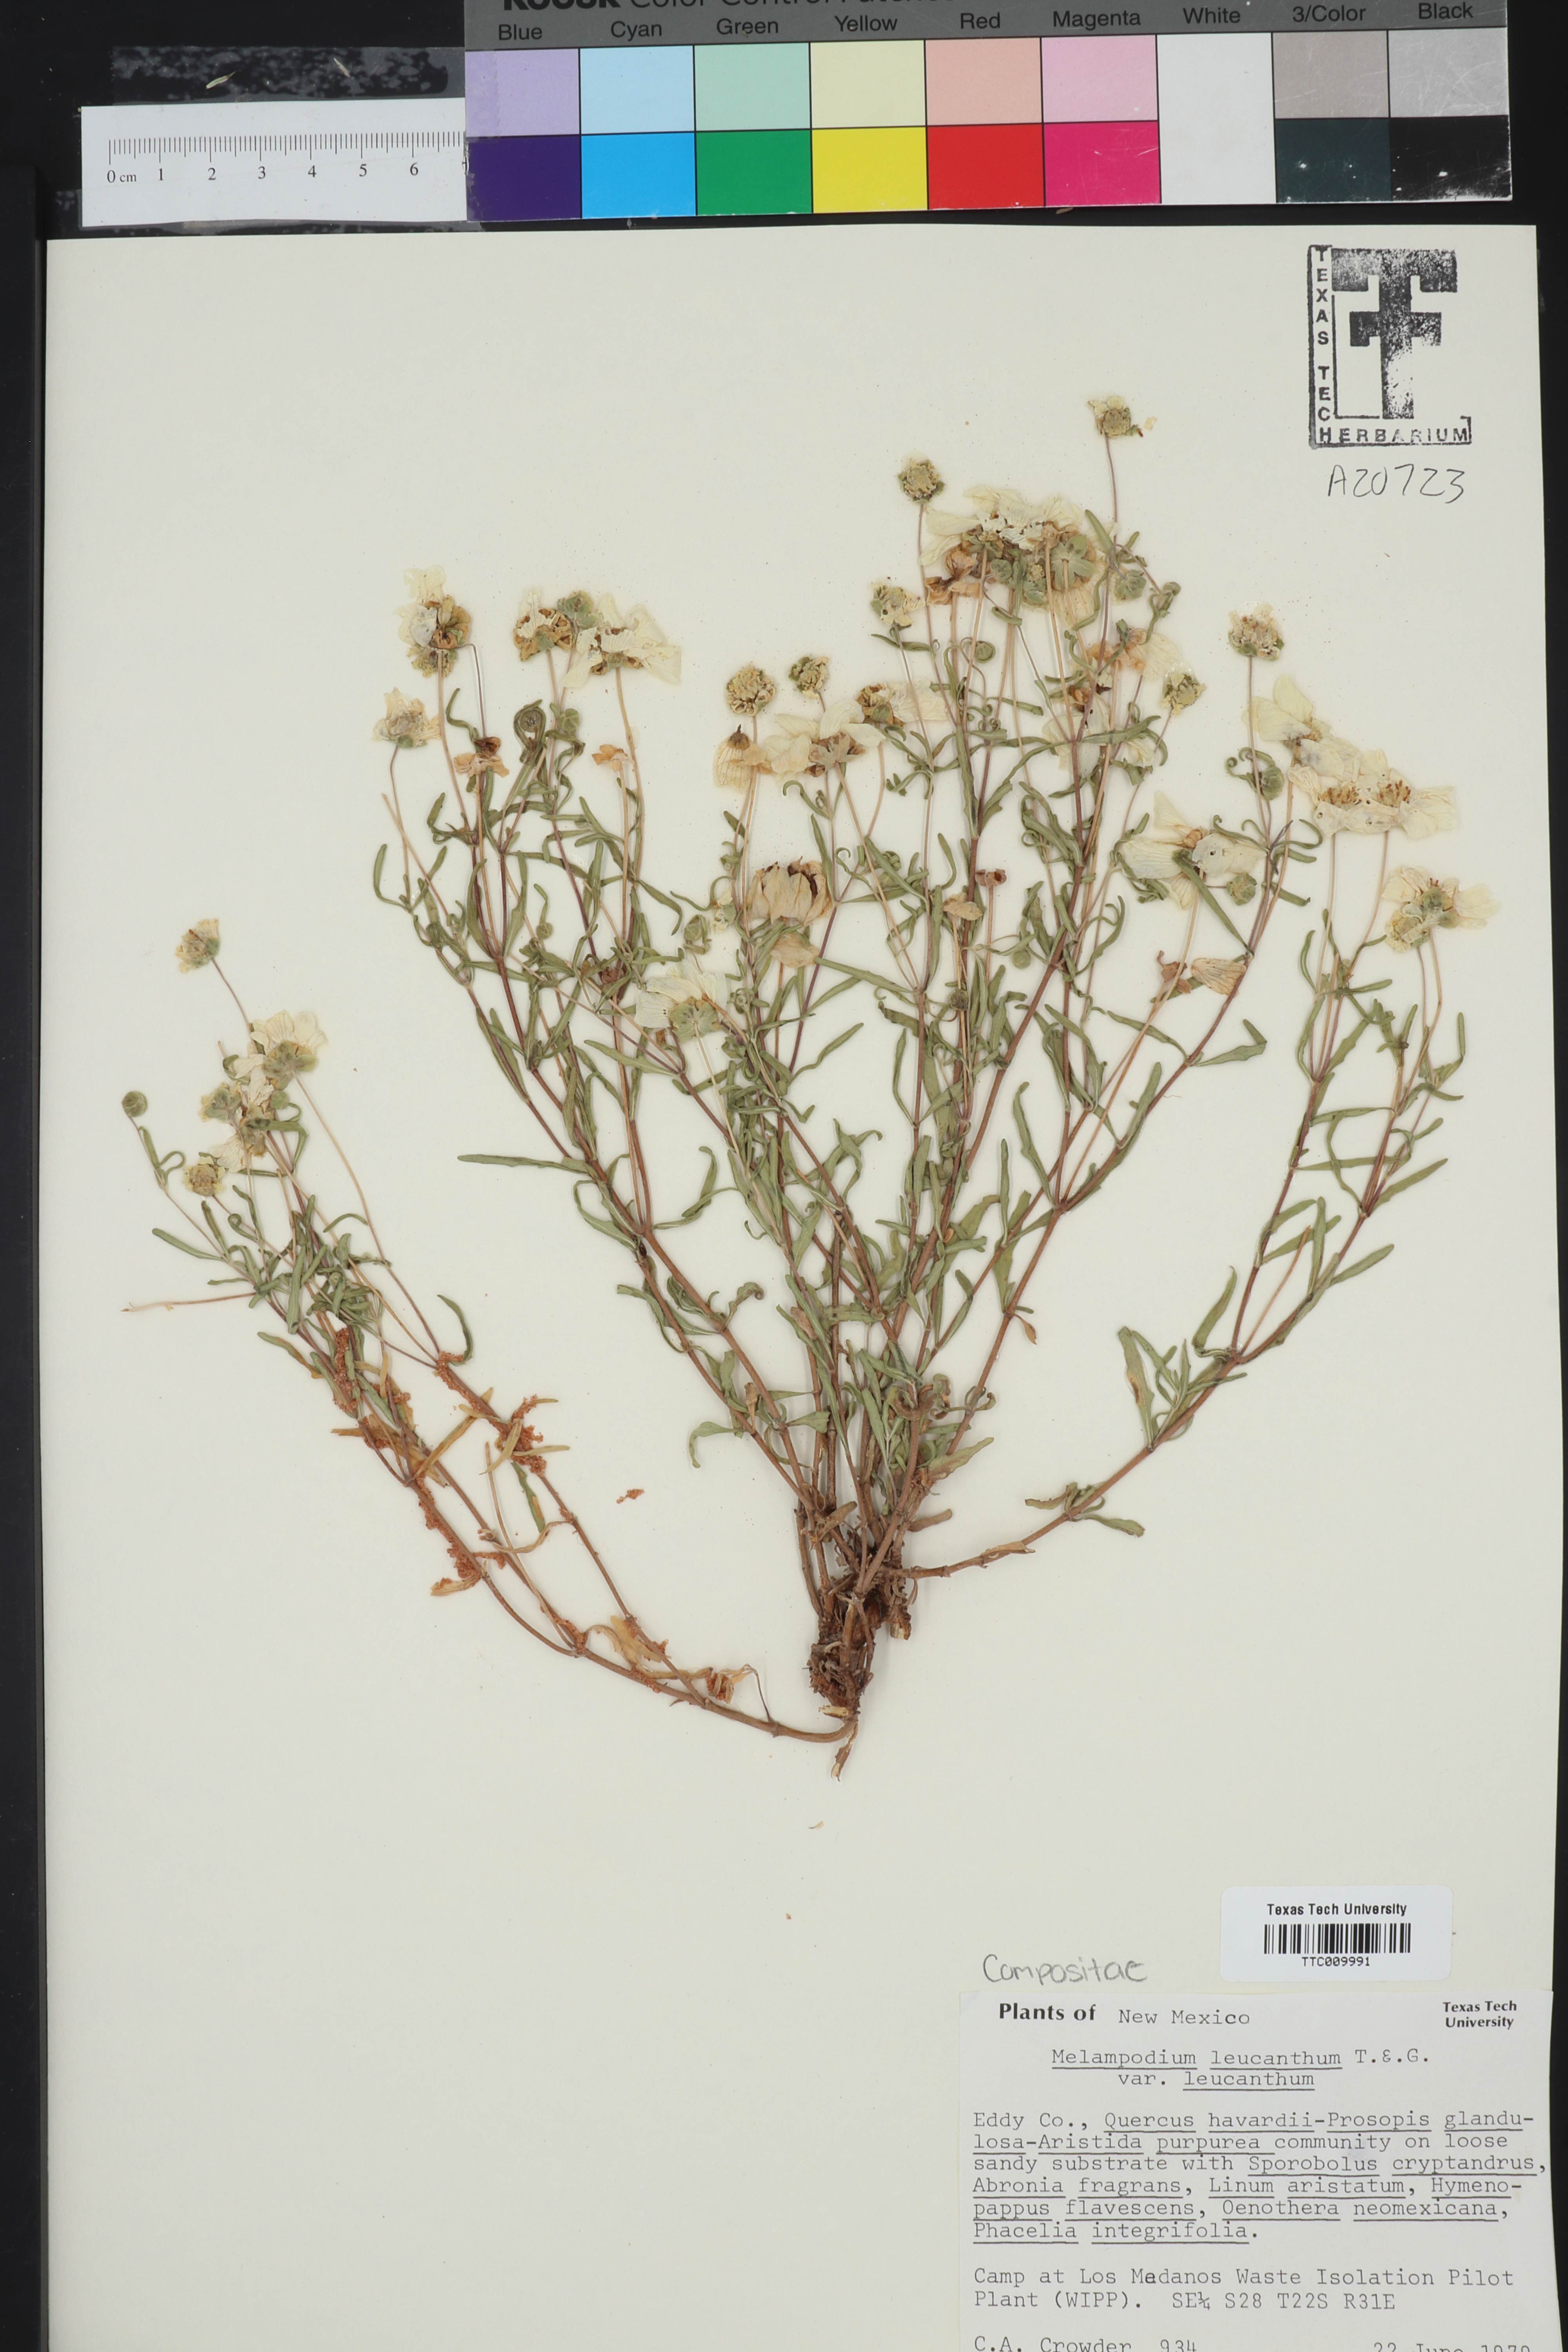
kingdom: Plantae
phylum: Tracheophyta
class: Magnoliopsida
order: Asterales
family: Asteraceae
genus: Melampodium
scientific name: Melampodium leucanthum
